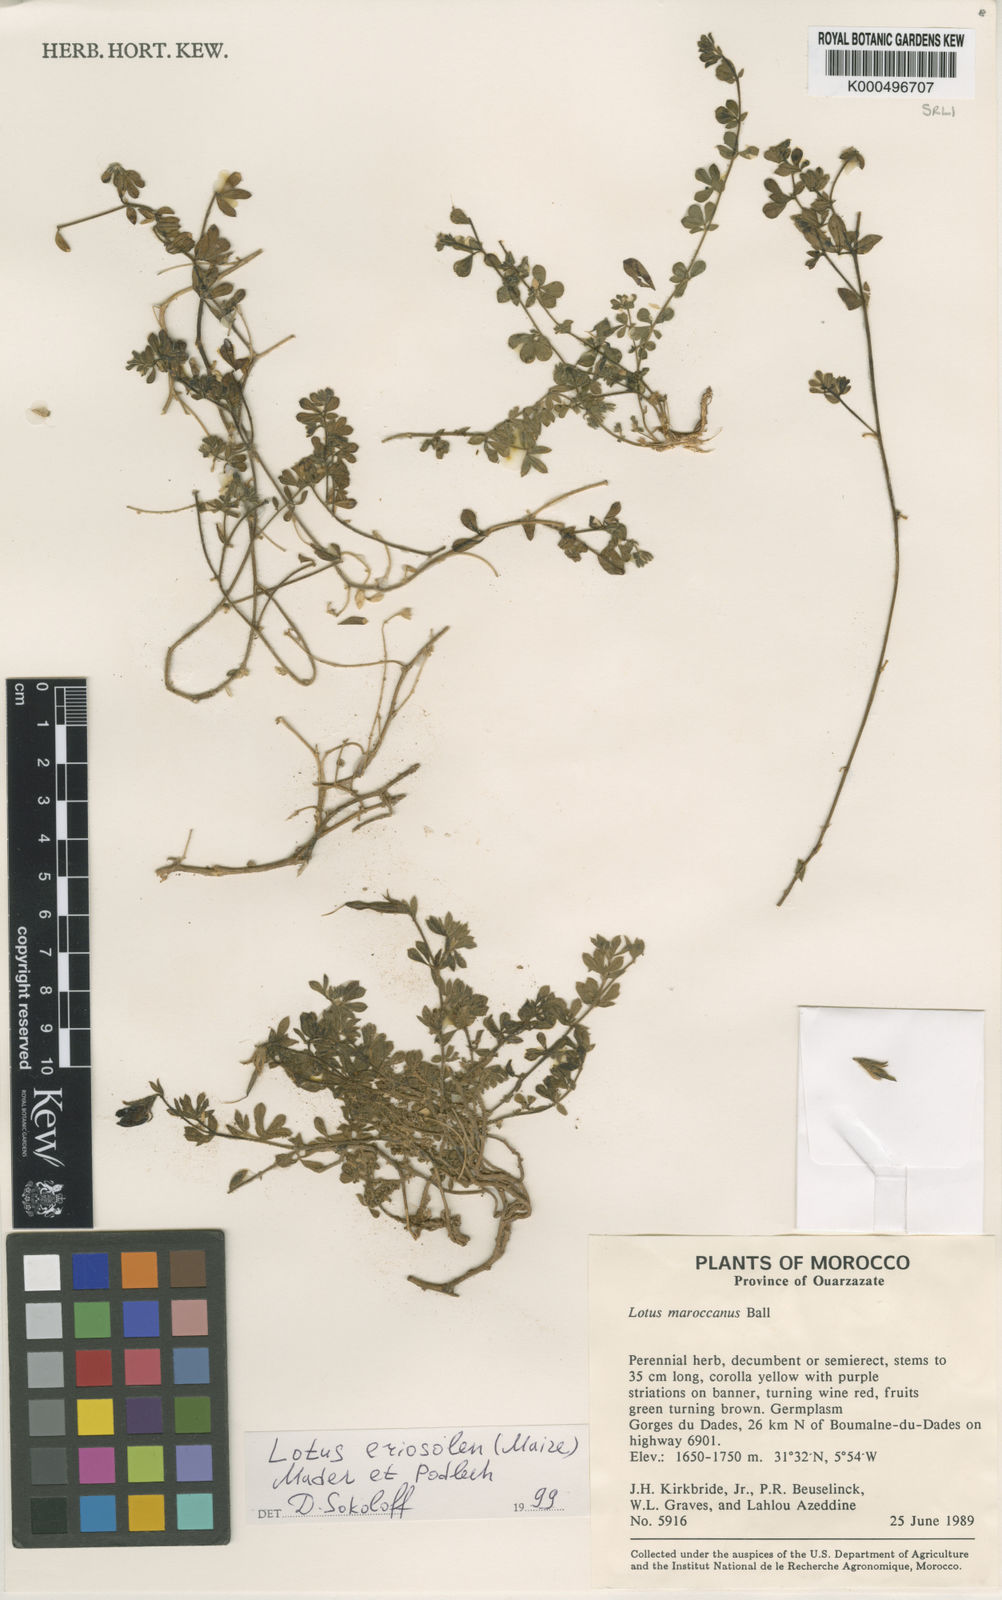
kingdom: Plantae
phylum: Tracheophyta
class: Magnoliopsida
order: Fabales
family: Fabaceae
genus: Lotus
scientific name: Lotus villicarpus
